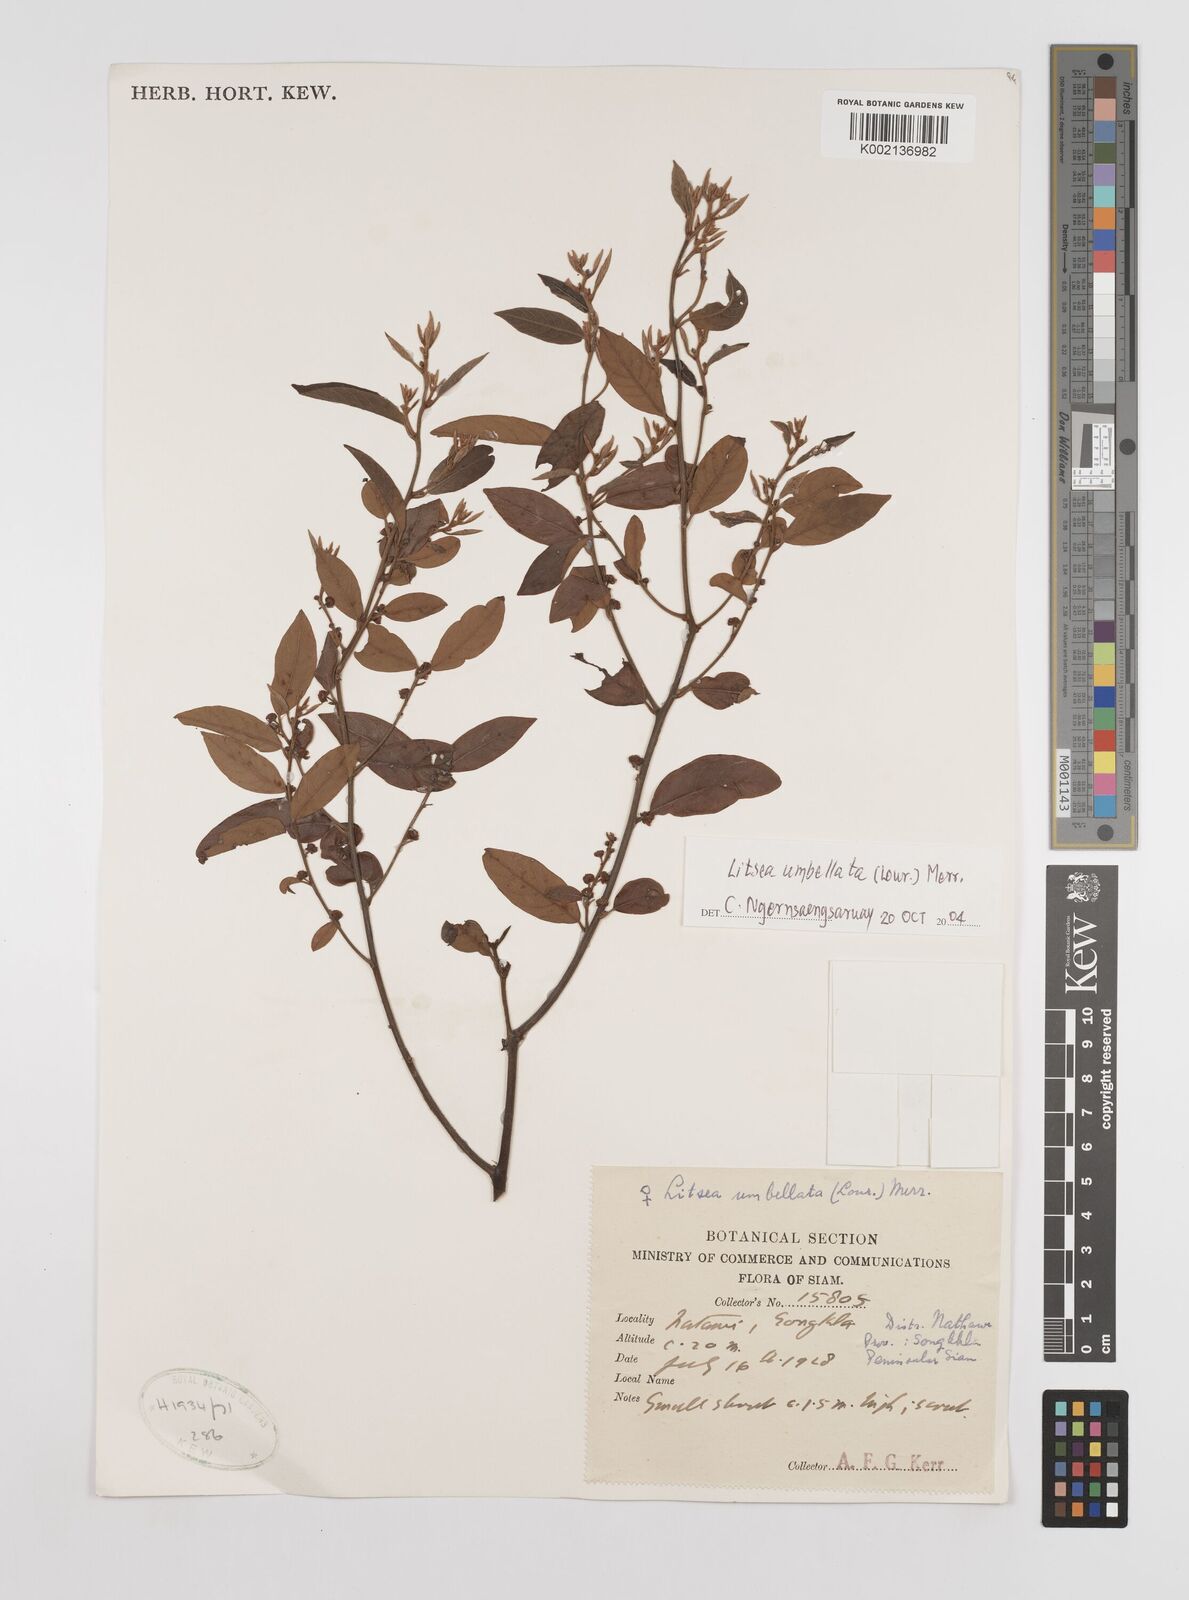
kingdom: Plantae
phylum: Tracheophyta
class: Magnoliopsida
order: Laurales
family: Lauraceae
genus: Litsea
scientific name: Litsea umbellata
